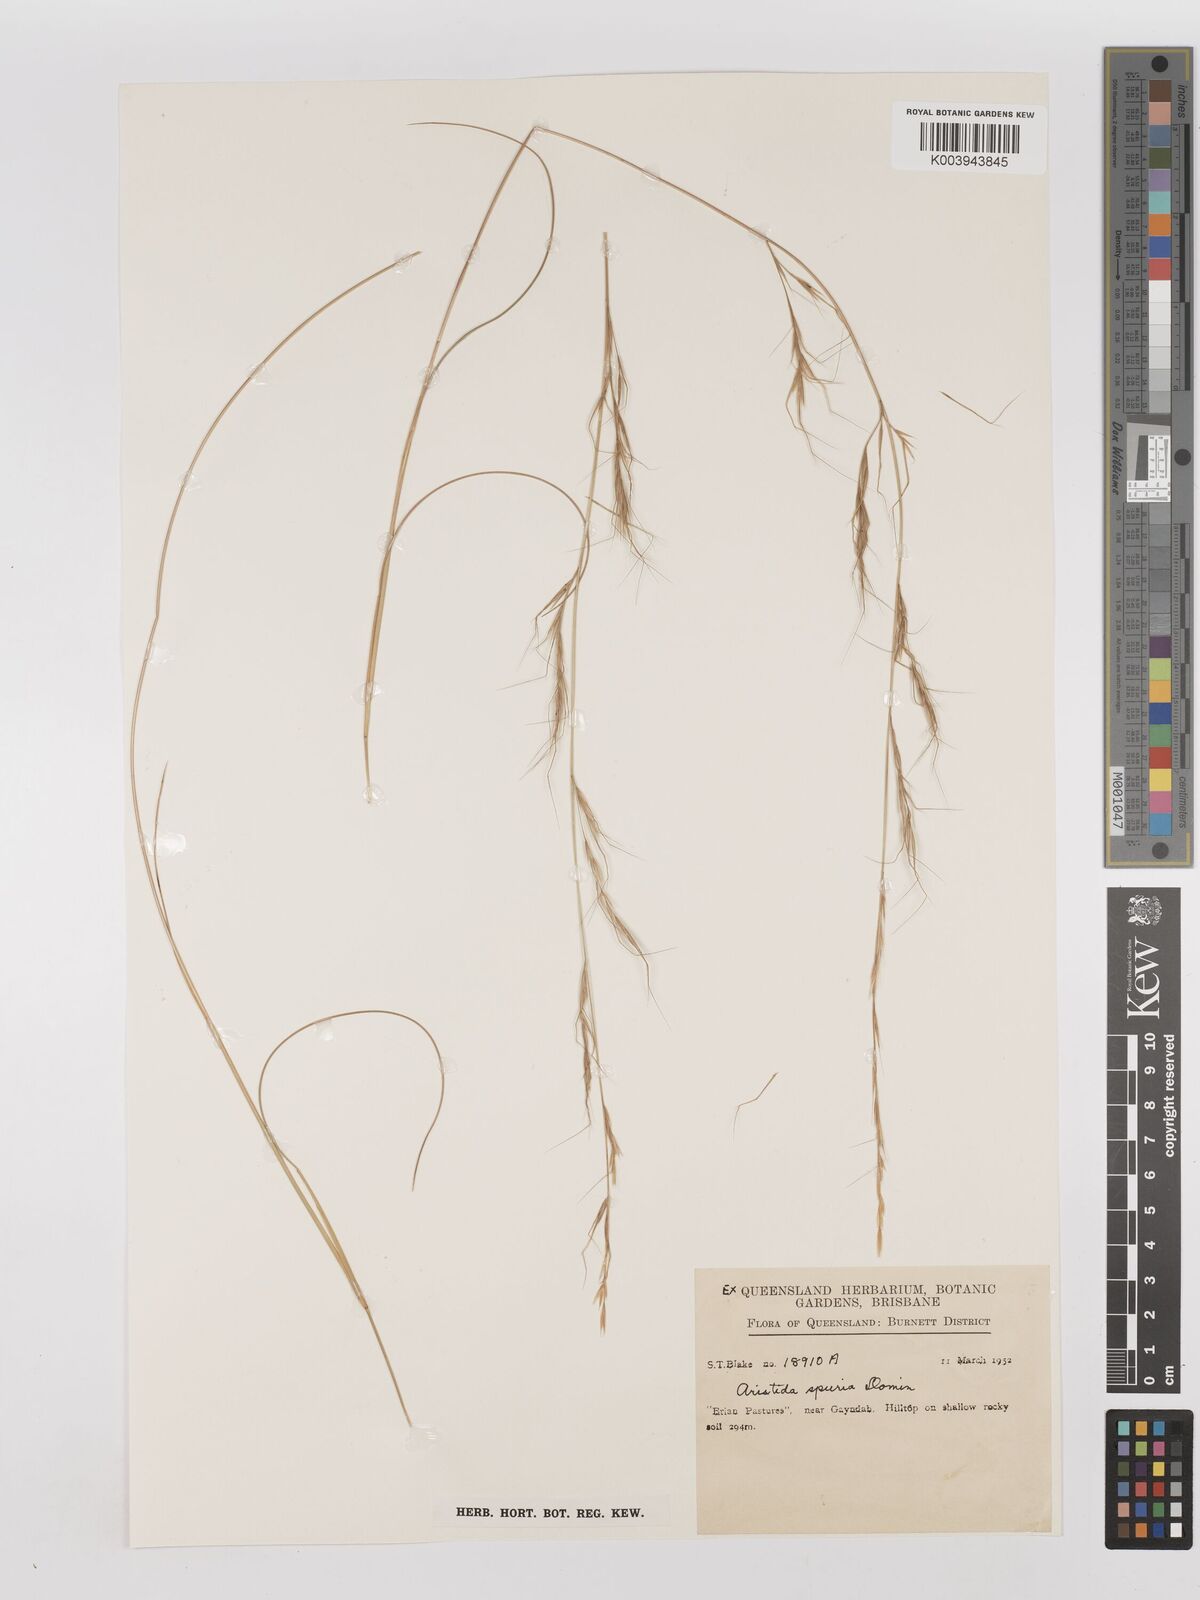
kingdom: Plantae
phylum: Tracheophyta
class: Liliopsida
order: Poales
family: Poaceae
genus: Aristida
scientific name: Aristida spuria
